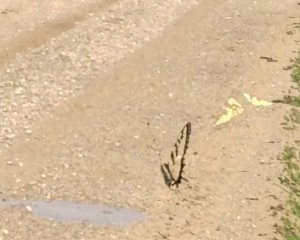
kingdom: Animalia
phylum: Arthropoda
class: Insecta
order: Lepidoptera
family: Papilionidae
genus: Pterourus
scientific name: Pterourus canadensis
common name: Canadian Tiger Swallowtail
